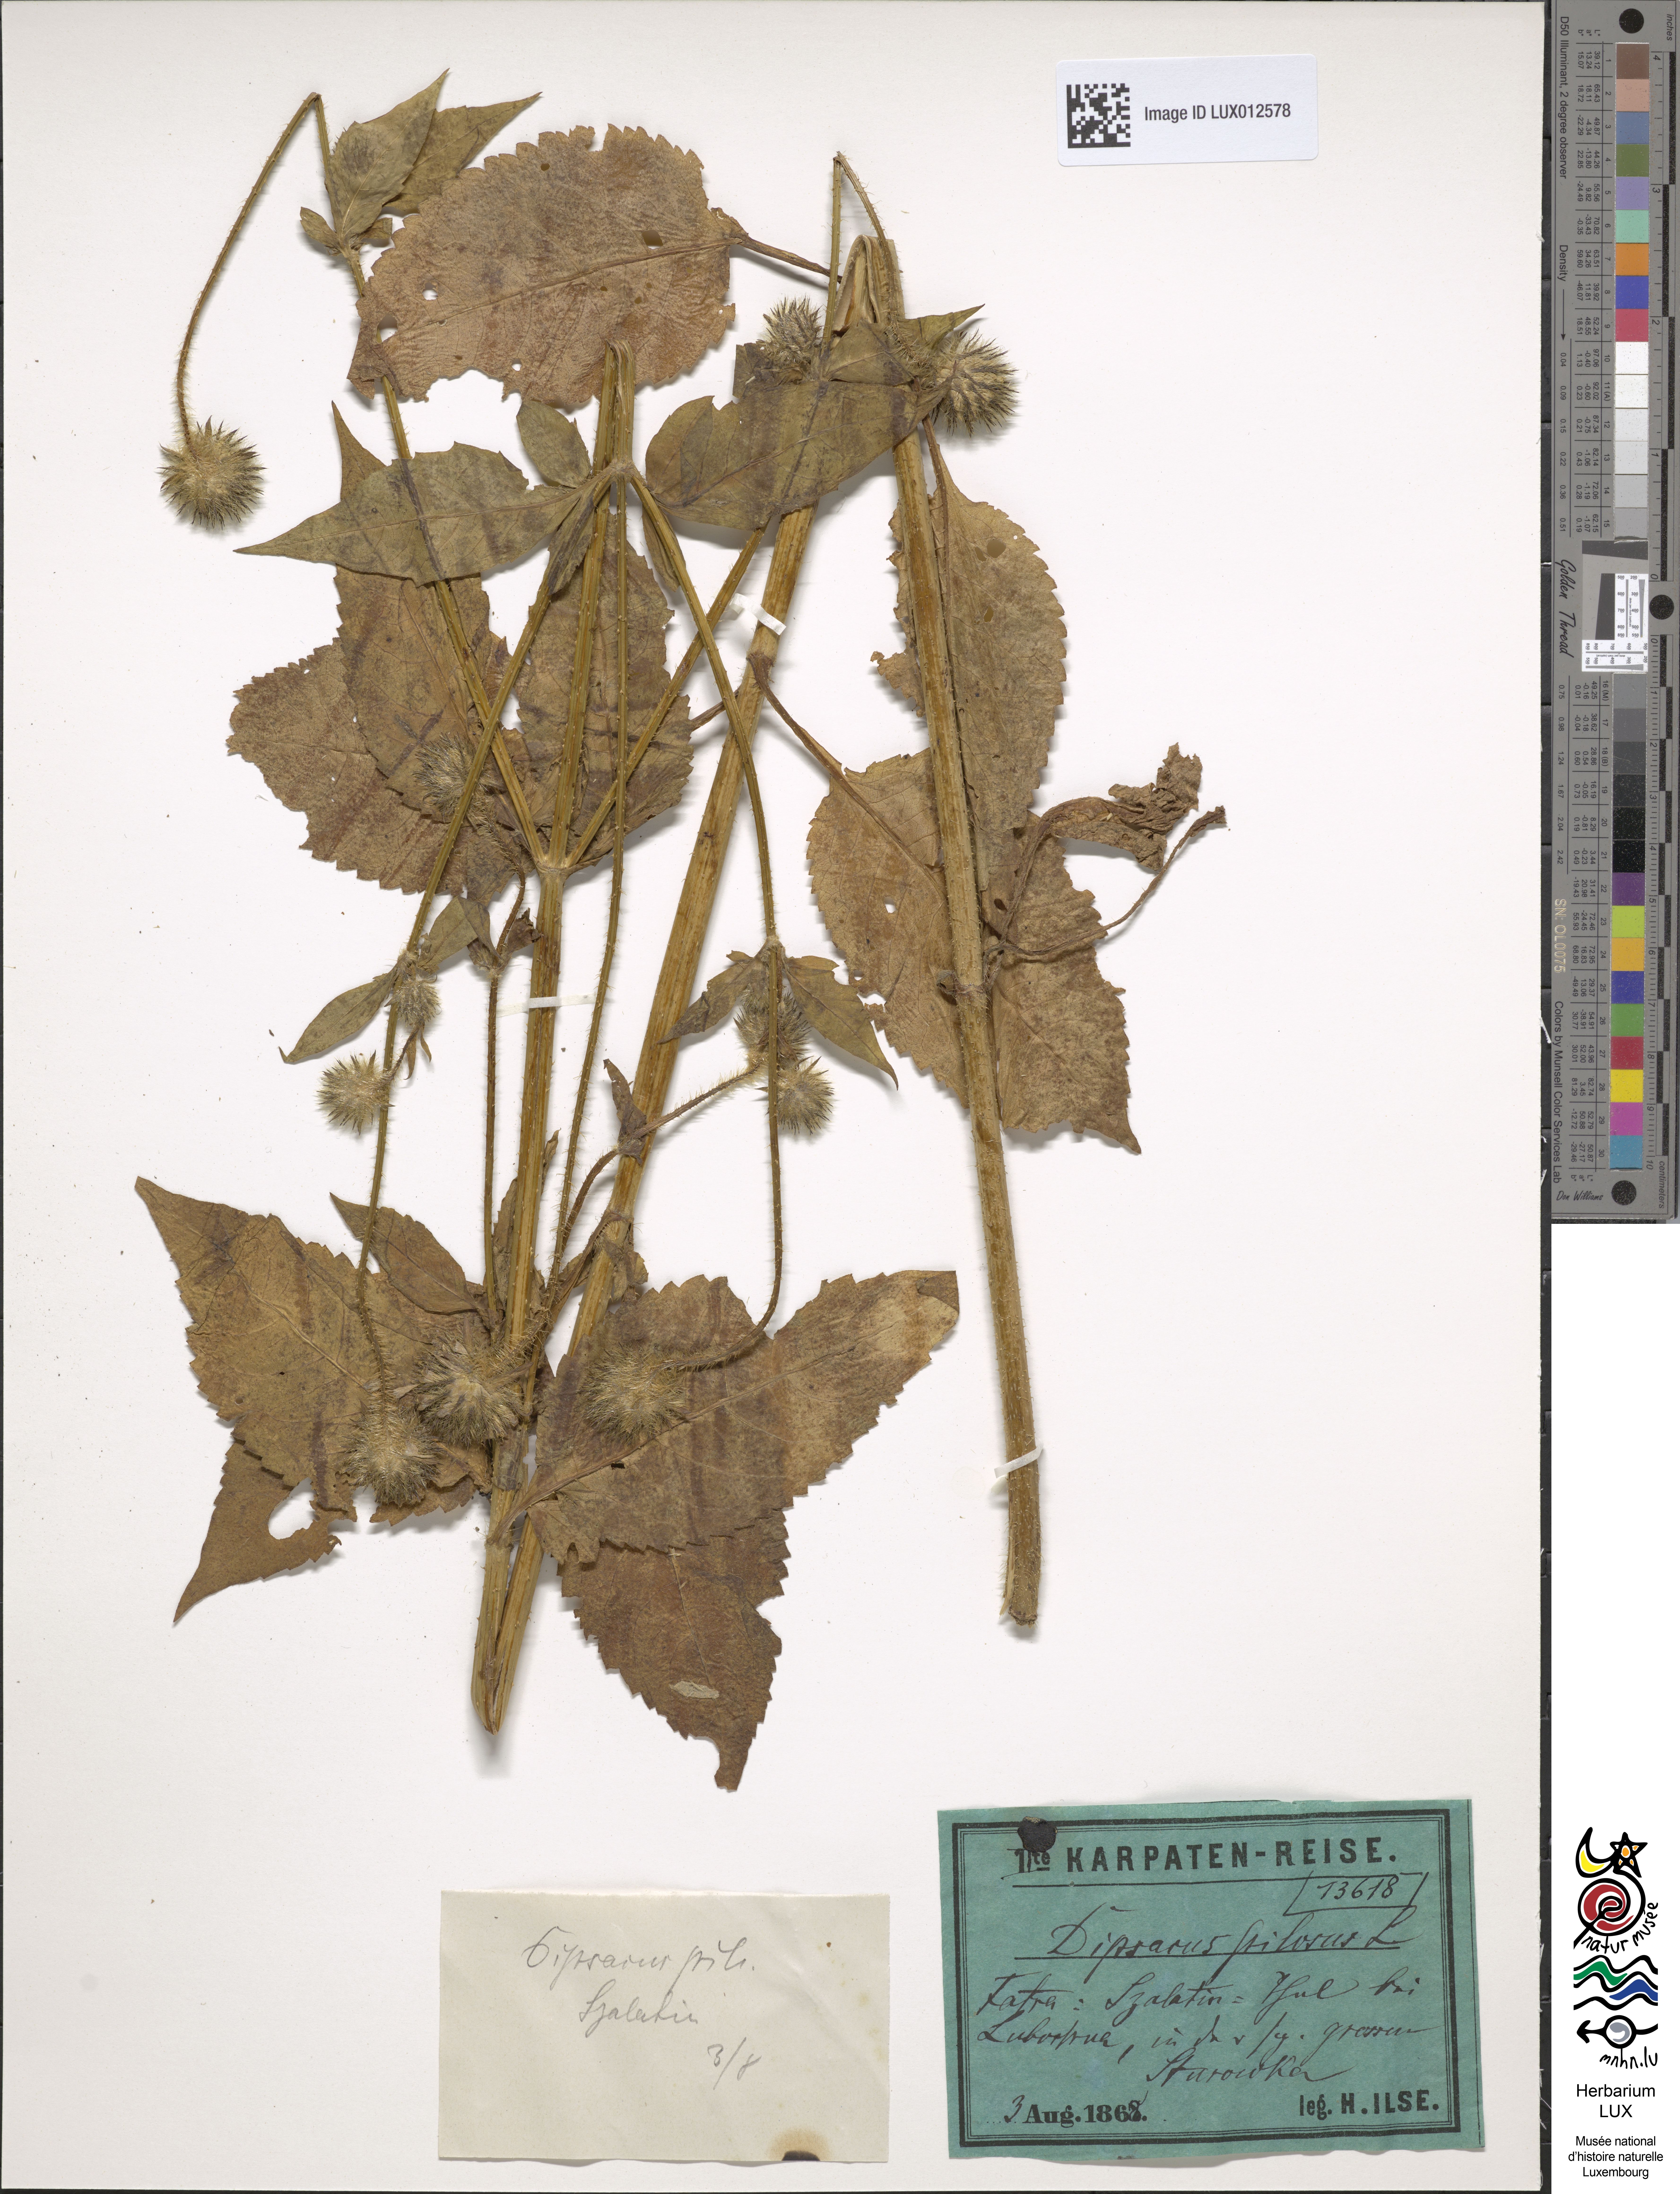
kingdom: Plantae
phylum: Tracheophyta
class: Magnoliopsida
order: Dipsacales
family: Caprifoliaceae
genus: Dipsacus
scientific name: Dipsacus pilosus
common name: Small teasel
